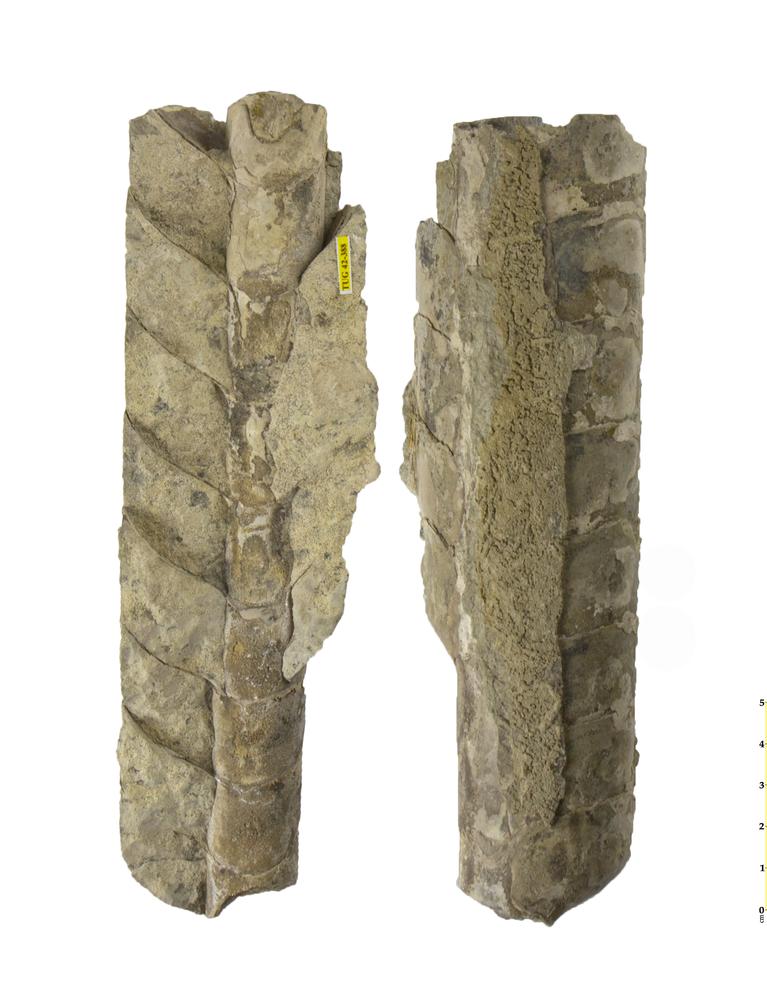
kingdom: Animalia
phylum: Mollusca
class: Cephalopoda
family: Endoceratidae
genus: Proterovaginoceras
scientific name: Proterovaginoceras Endoceras incognitum
